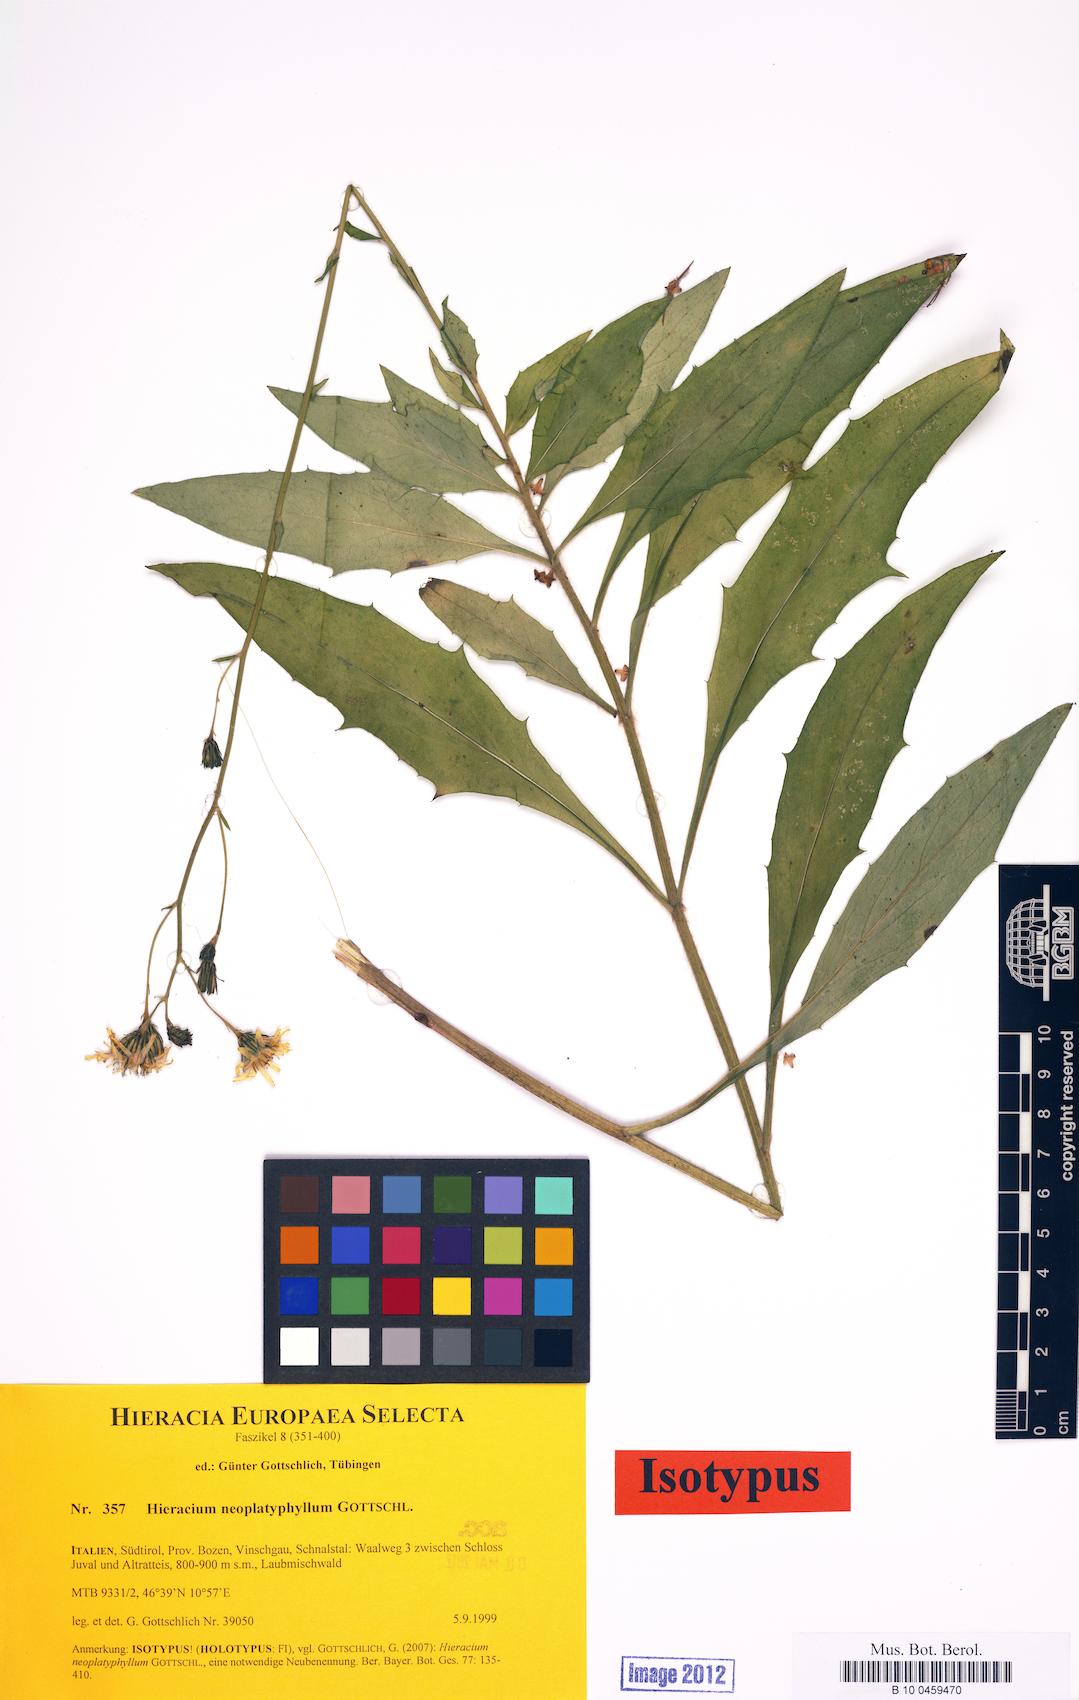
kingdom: Plantae
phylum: Tracheophyta
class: Magnoliopsida
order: Asterales
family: Asteraceae
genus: Hieracium
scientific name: Hieracium neoplatyphyllum
